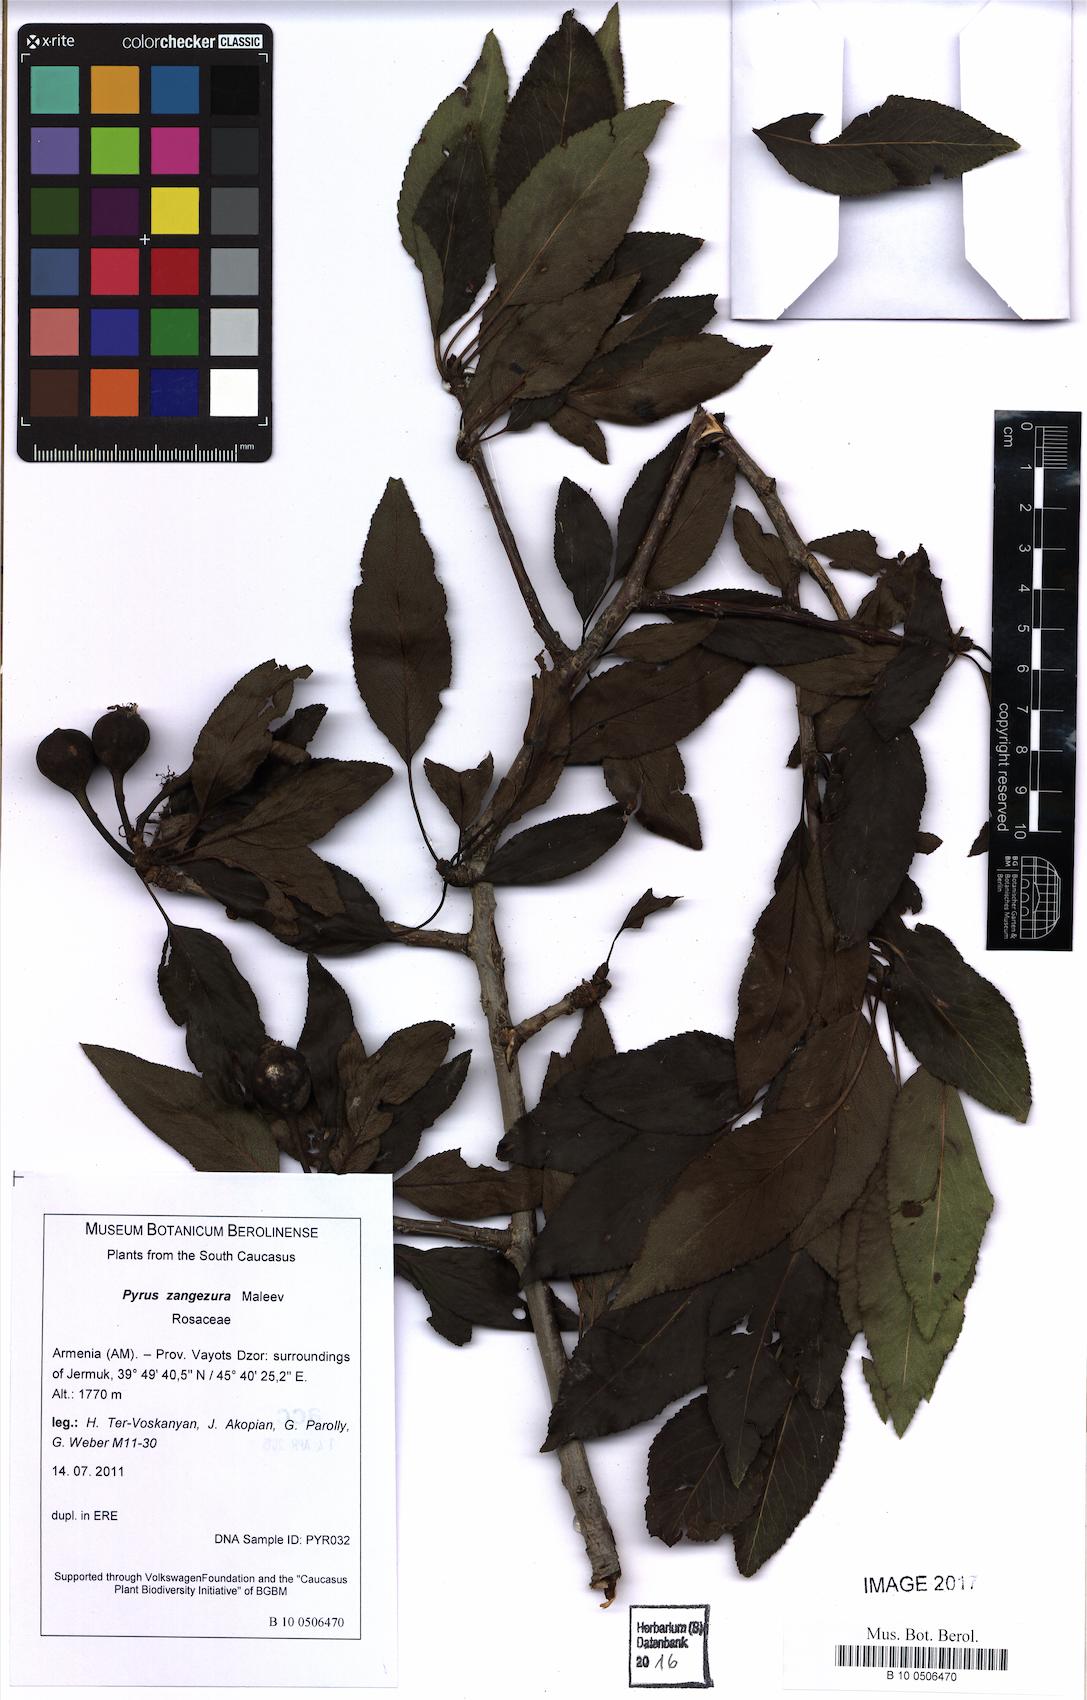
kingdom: Plantae
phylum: Tracheophyta
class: Magnoliopsida
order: Rosales
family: Rosaceae
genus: Pyrus
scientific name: Pyrus zangezura
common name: Zangezurian pear
